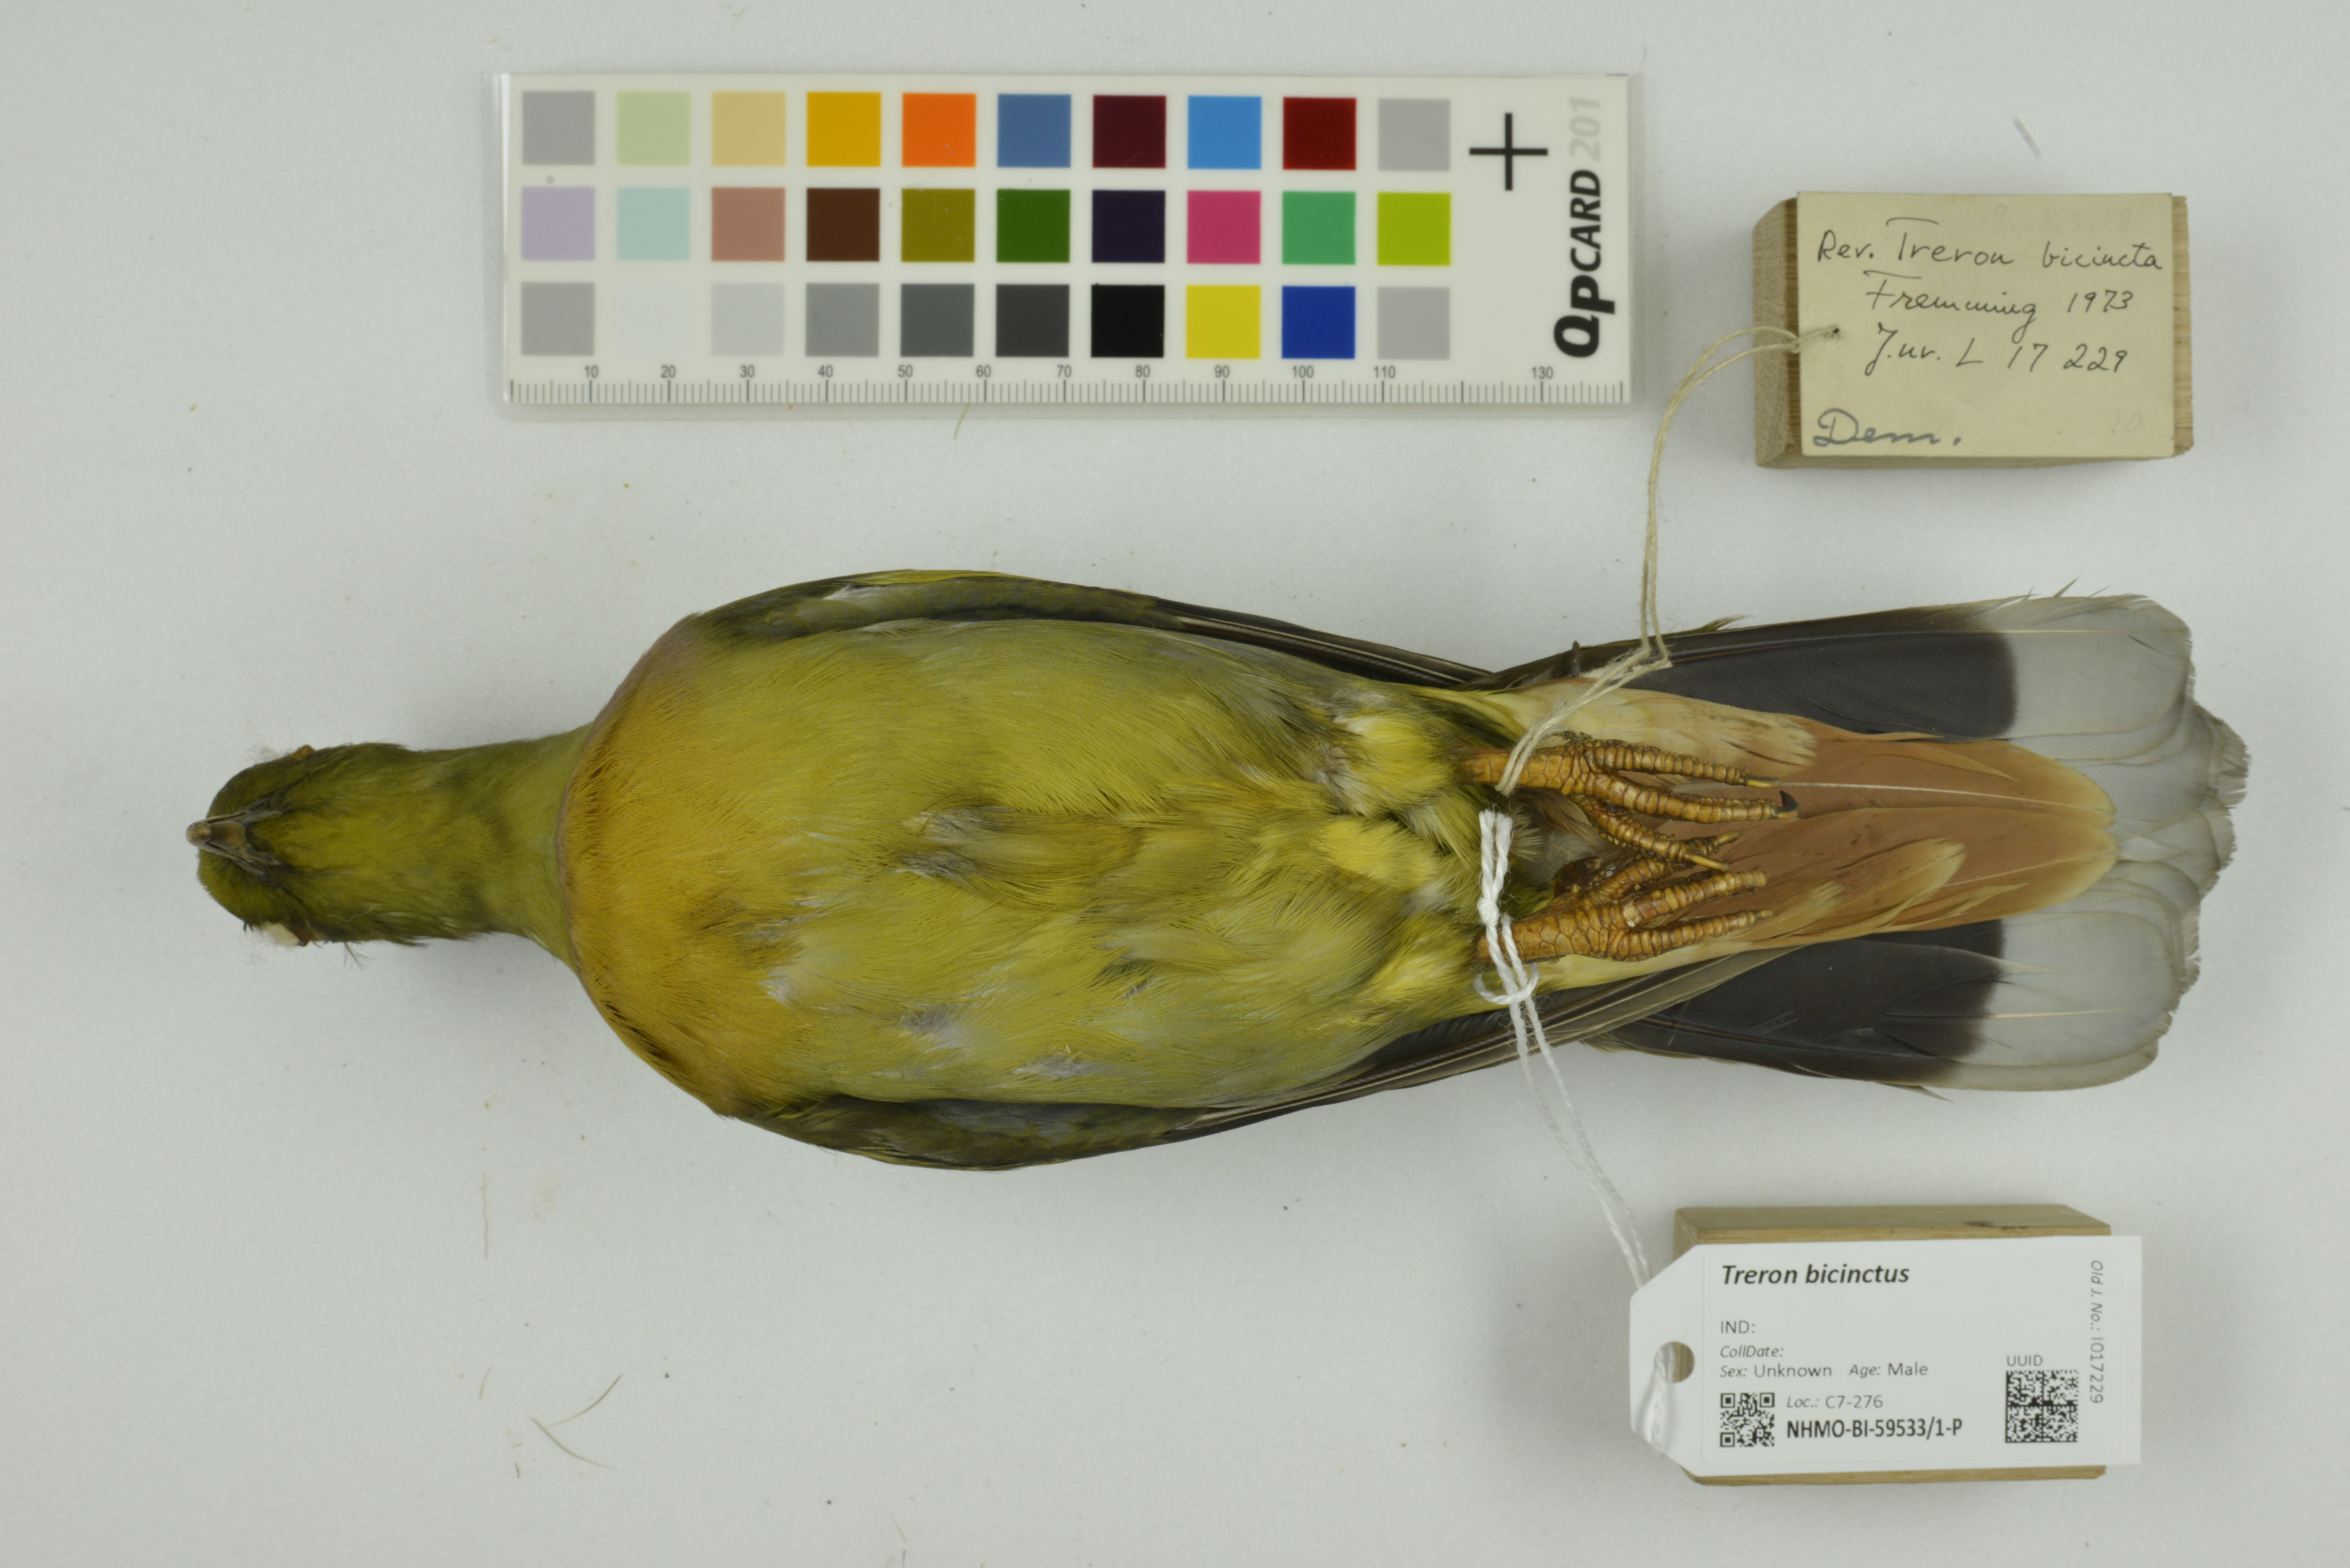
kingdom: Animalia
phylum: Chordata
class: Aves
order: Columbiformes
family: Columbidae
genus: Treron
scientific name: Treron bicinctus
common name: Orange-breasted green pigeon
